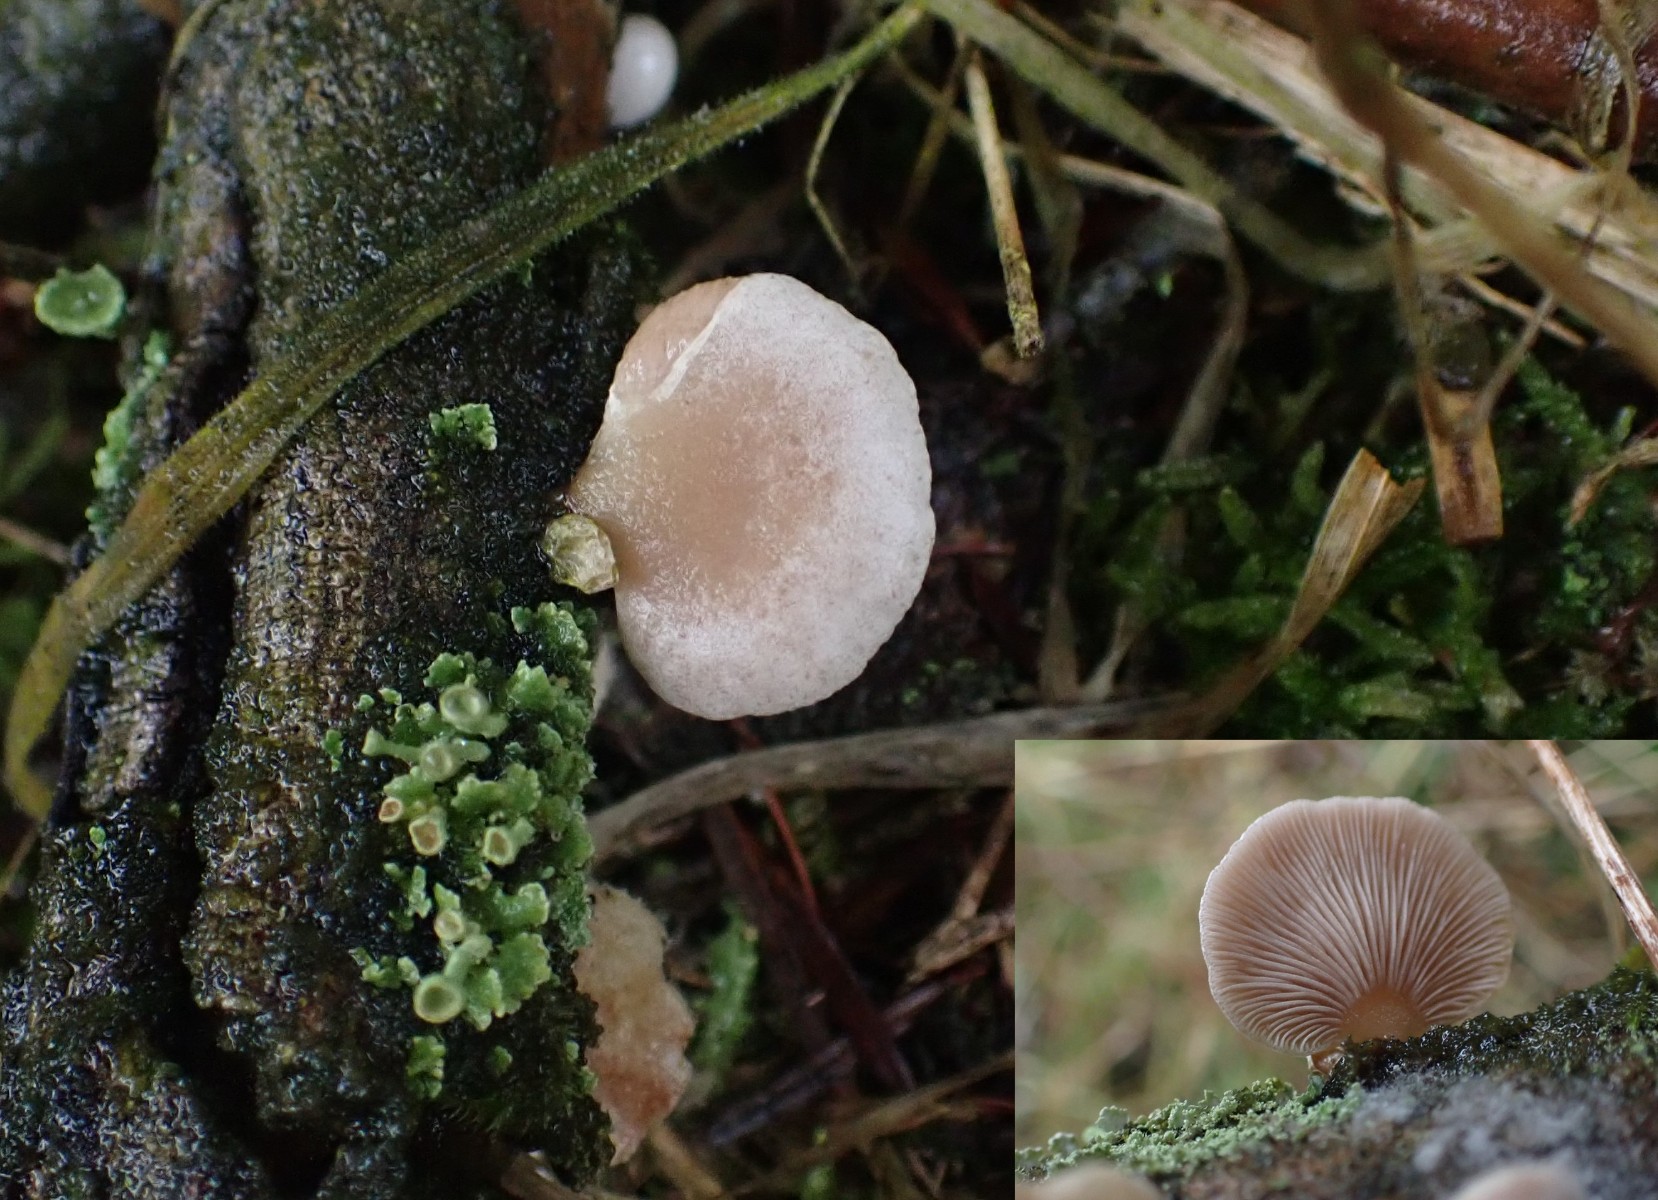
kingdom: Fungi
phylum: Basidiomycota
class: Agaricomycetes
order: Agaricales
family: Mycenaceae
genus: Panellus
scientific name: Panellus mitis
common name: mild epaulethat
